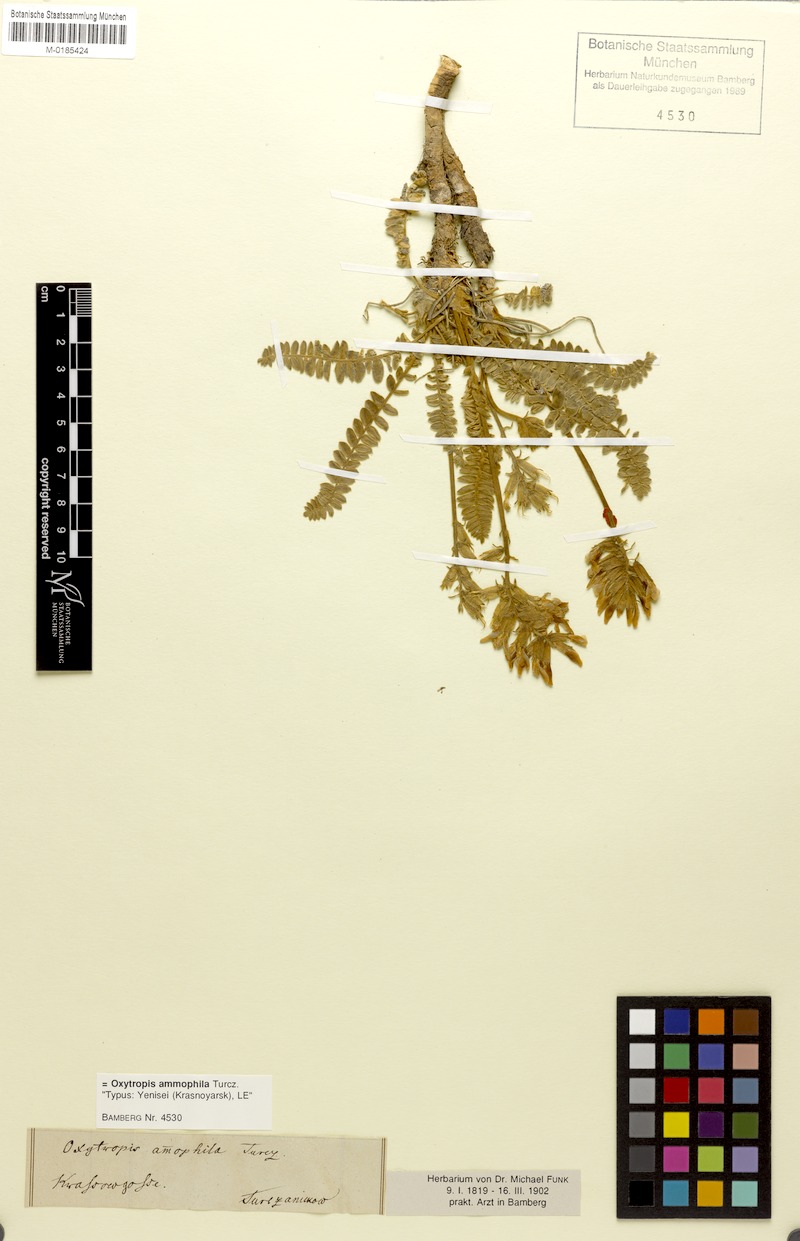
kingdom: Plantae
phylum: Tracheophyta
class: Magnoliopsida
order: Fabales
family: Fabaceae
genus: Oxytropis
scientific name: Oxytropis ammophila
